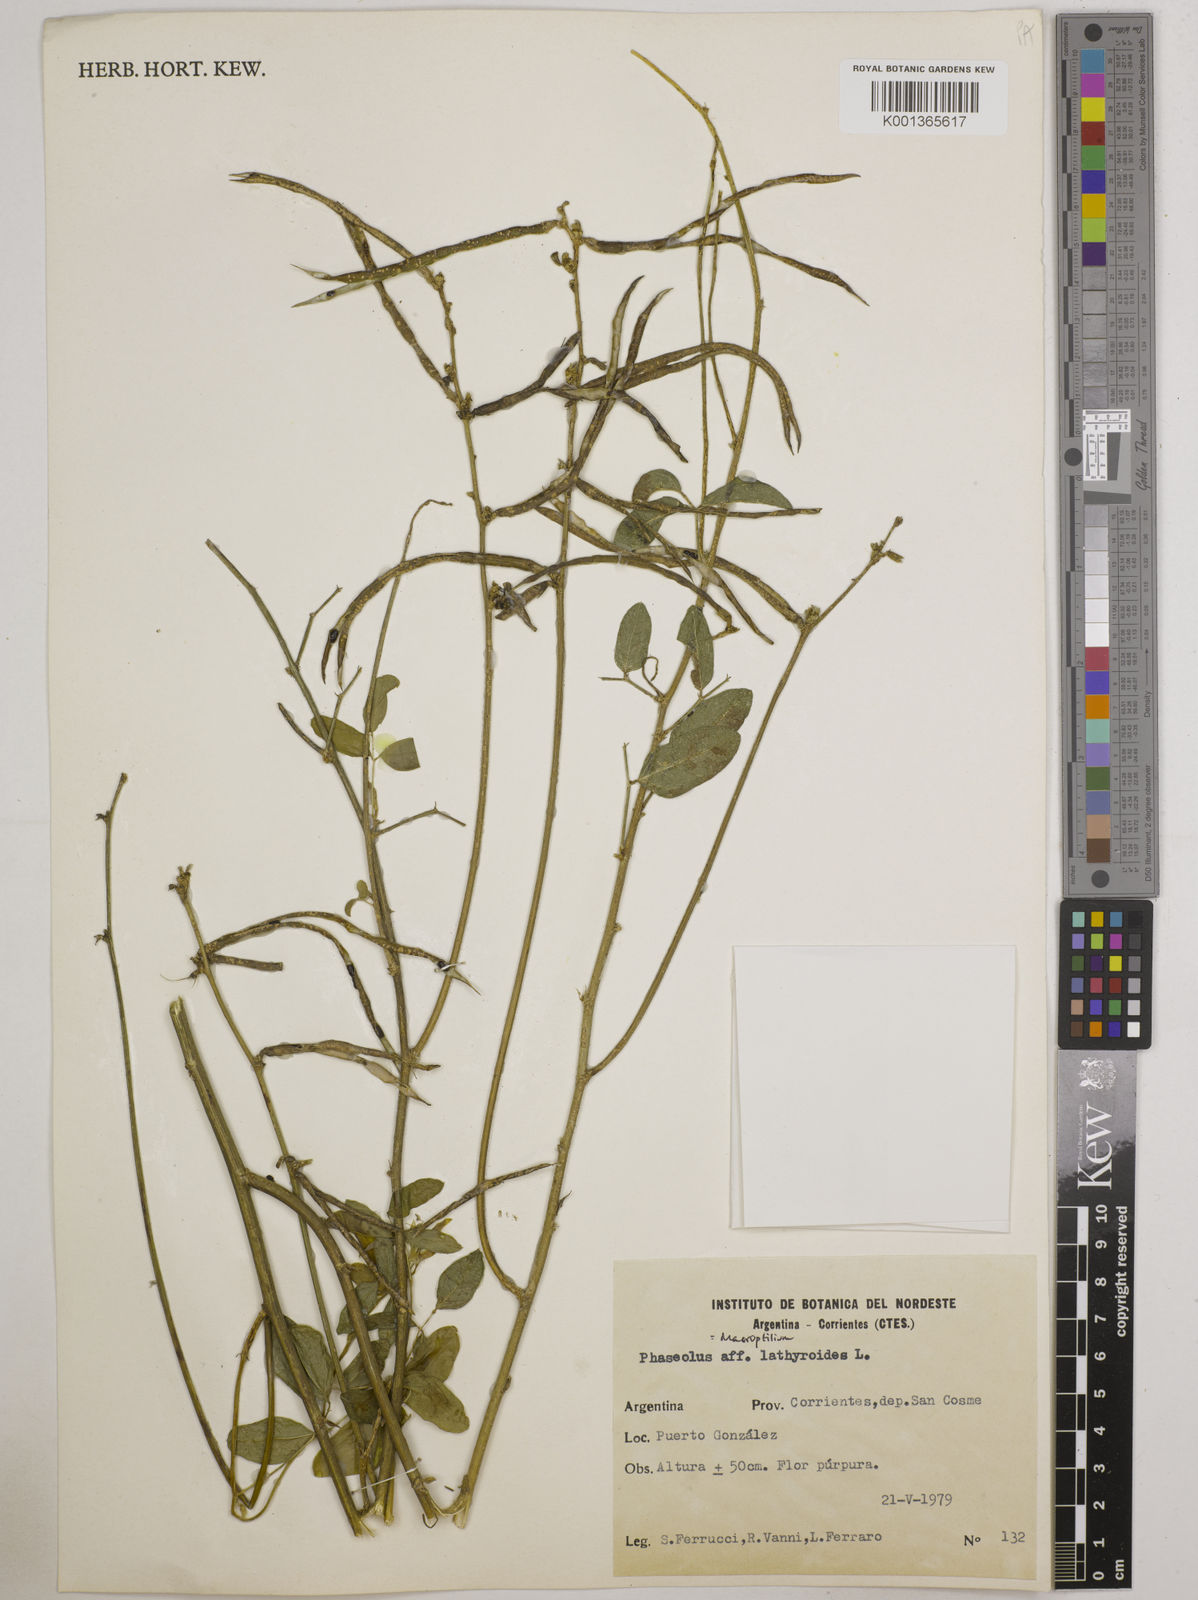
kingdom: Plantae
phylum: Tracheophyta
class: Magnoliopsida
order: Fabales
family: Fabaceae
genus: Macroptilium
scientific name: Macroptilium lathyroides
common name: Wild bushbean
